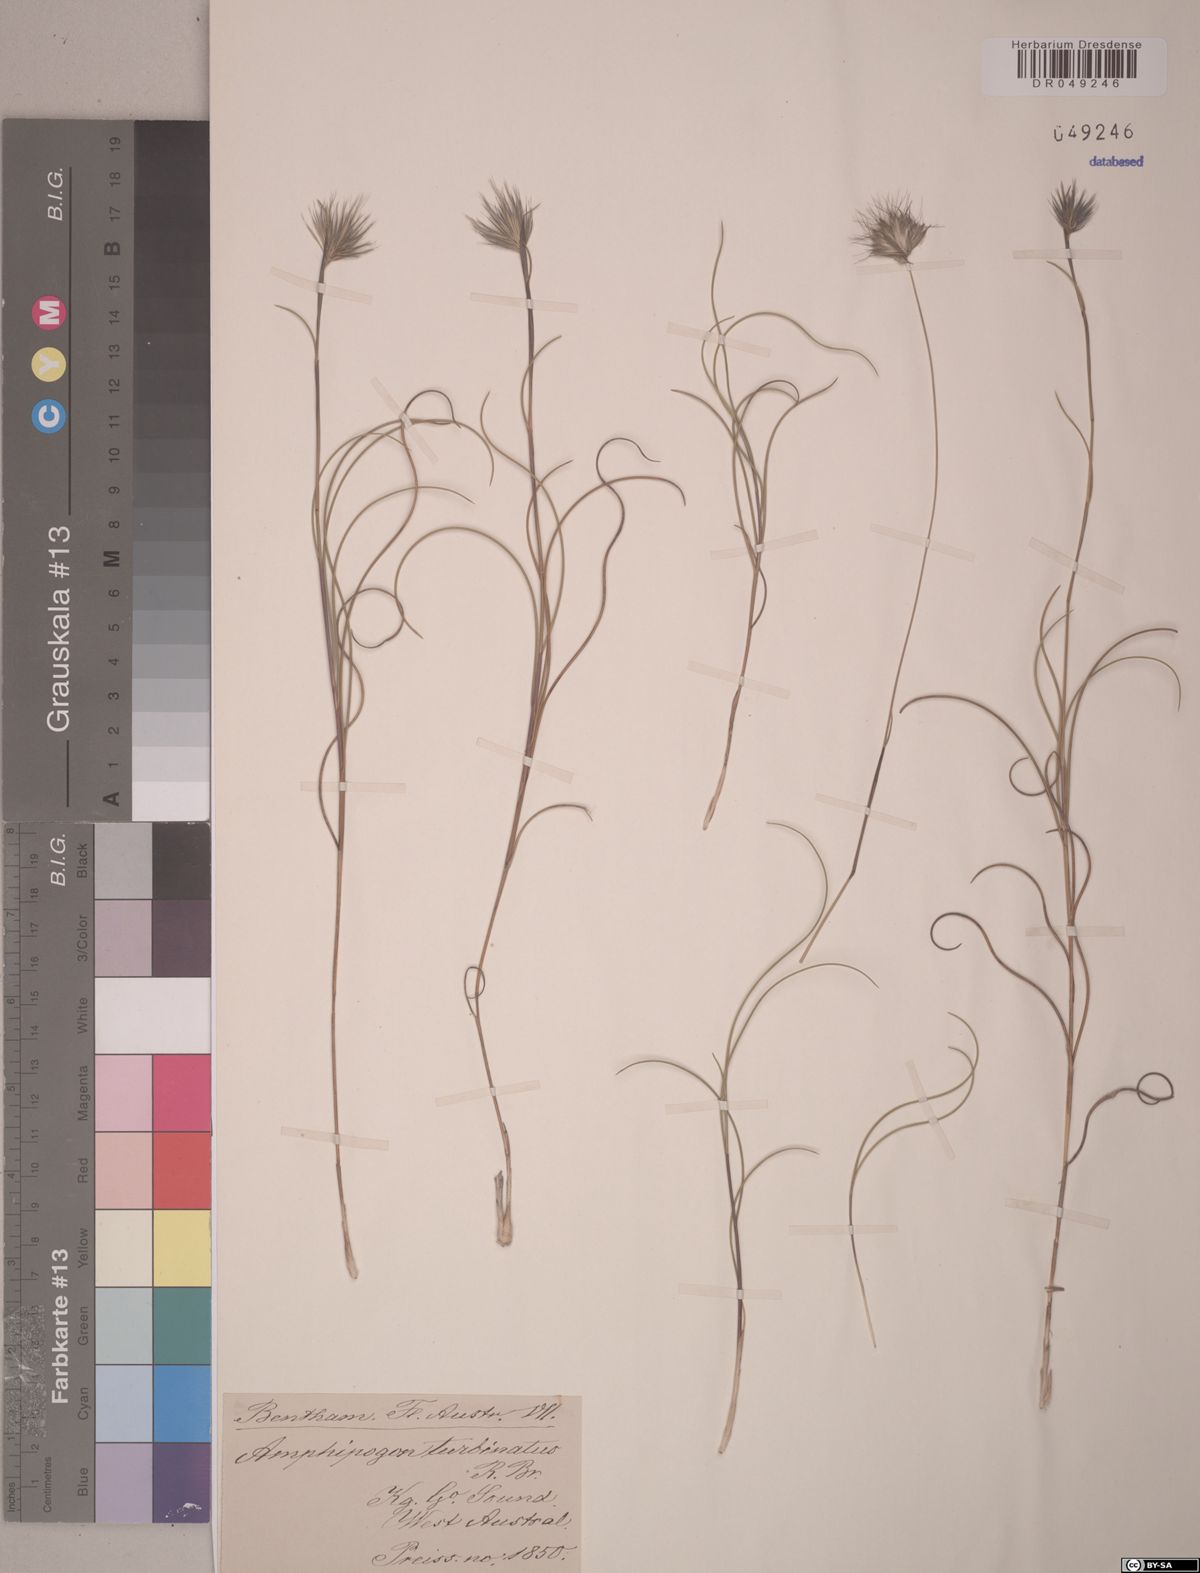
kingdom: Plantae
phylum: Tracheophyta
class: Liliopsida
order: Poales
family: Poaceae
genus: Amphipogon
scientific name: Amphipogon turbinatus
